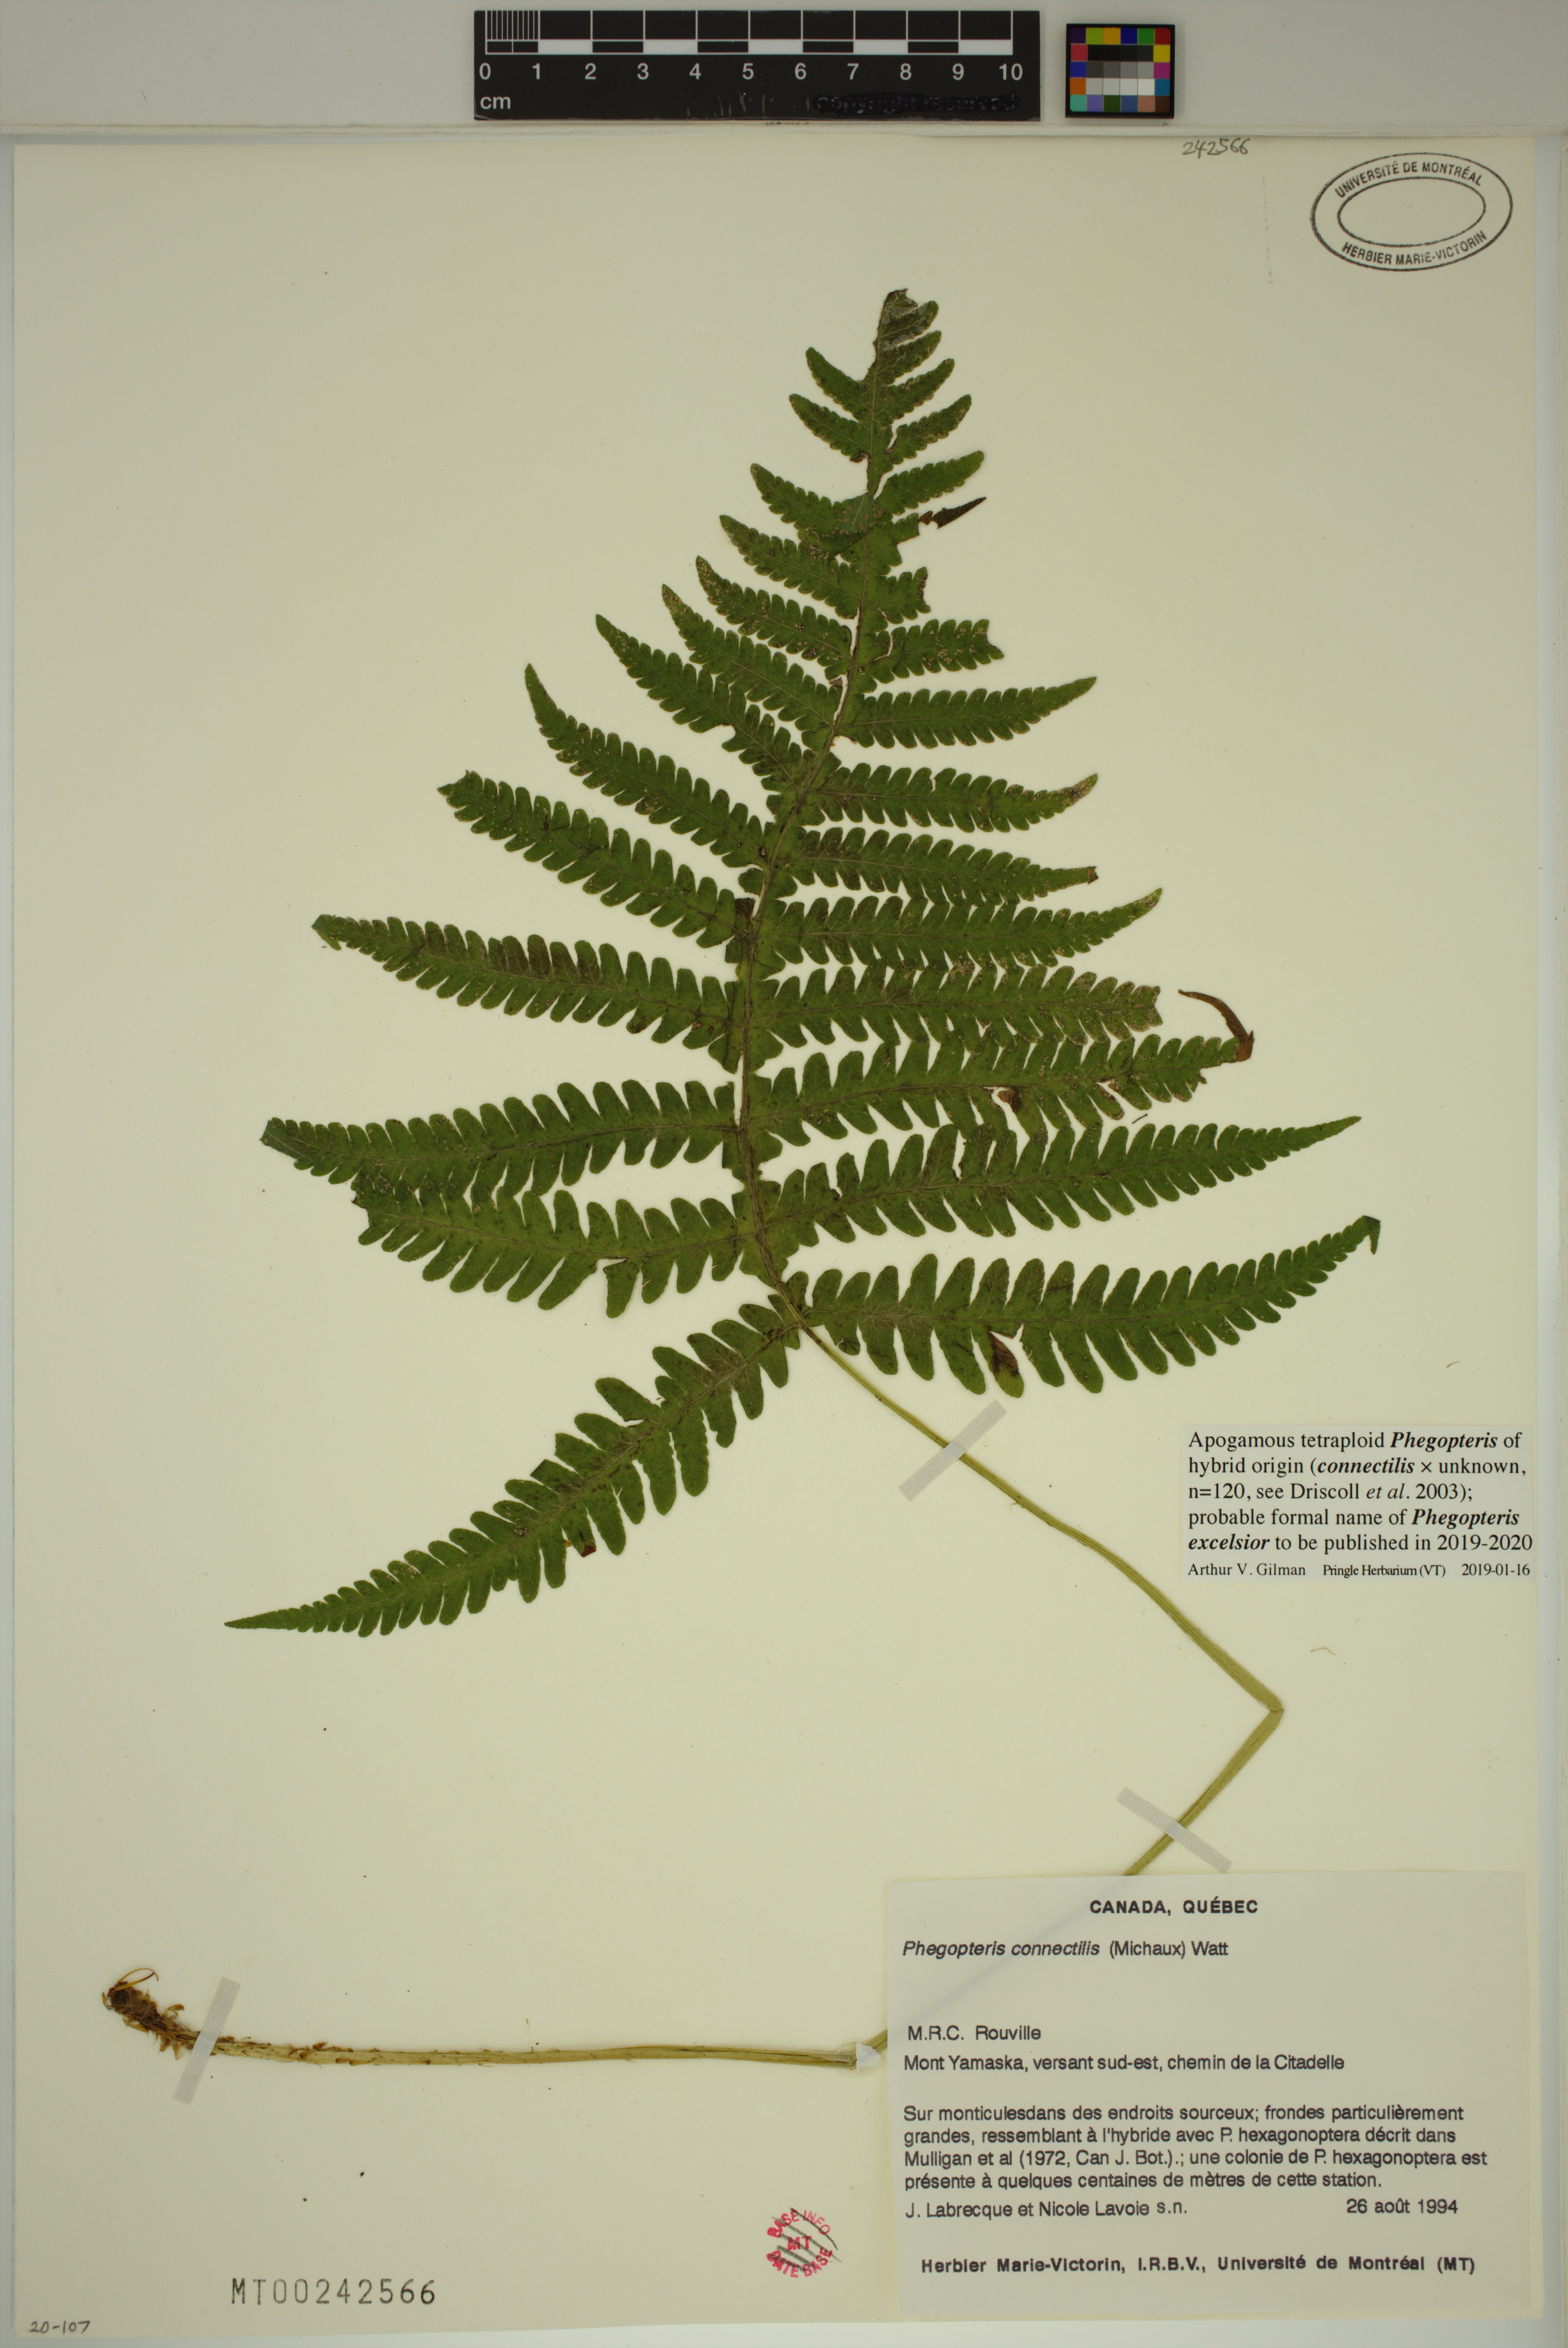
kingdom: Plantae
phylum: Tracheophyta
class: Polypodiopsida
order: Polypodiales
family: Thelypteridaceae
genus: Phegopteris
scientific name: Phegopteris
